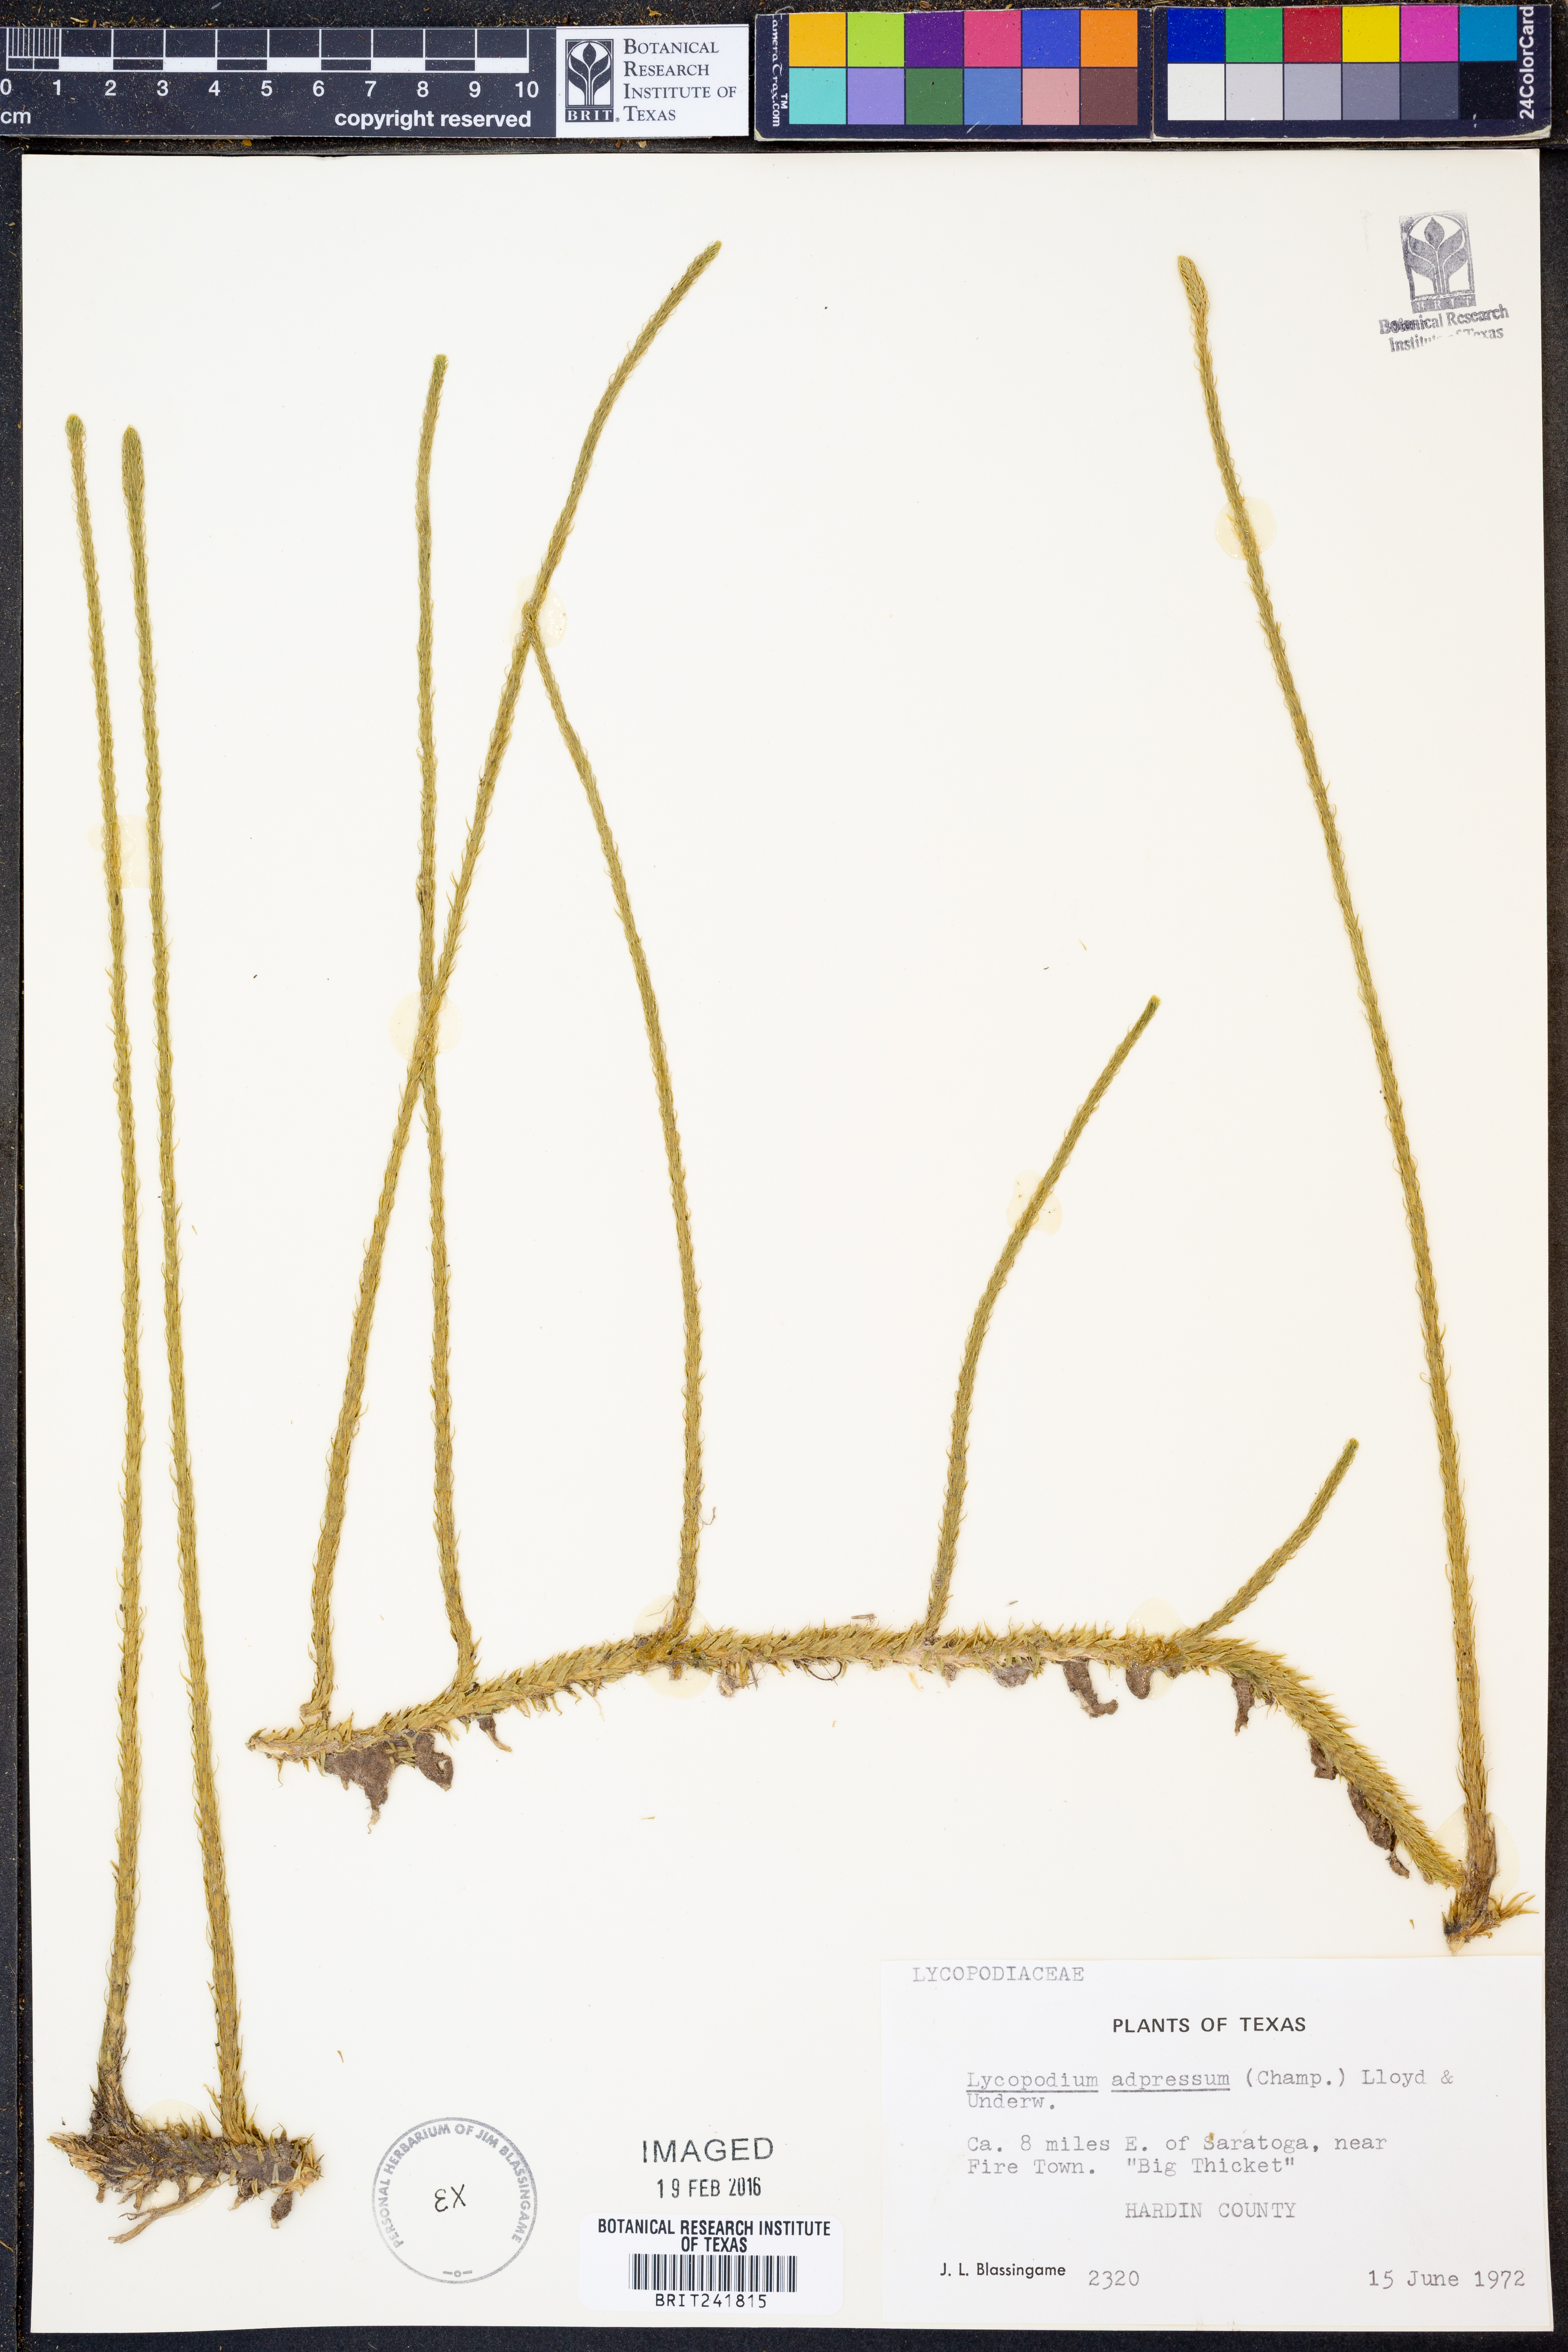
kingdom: Plantae
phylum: Tracheophyta
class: Lycopodiopsida
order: Lycopodiales
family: Lycopodiaceae
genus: Lycopodiella
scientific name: Lycopodiella appressa
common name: Appressed bog clubmoss
